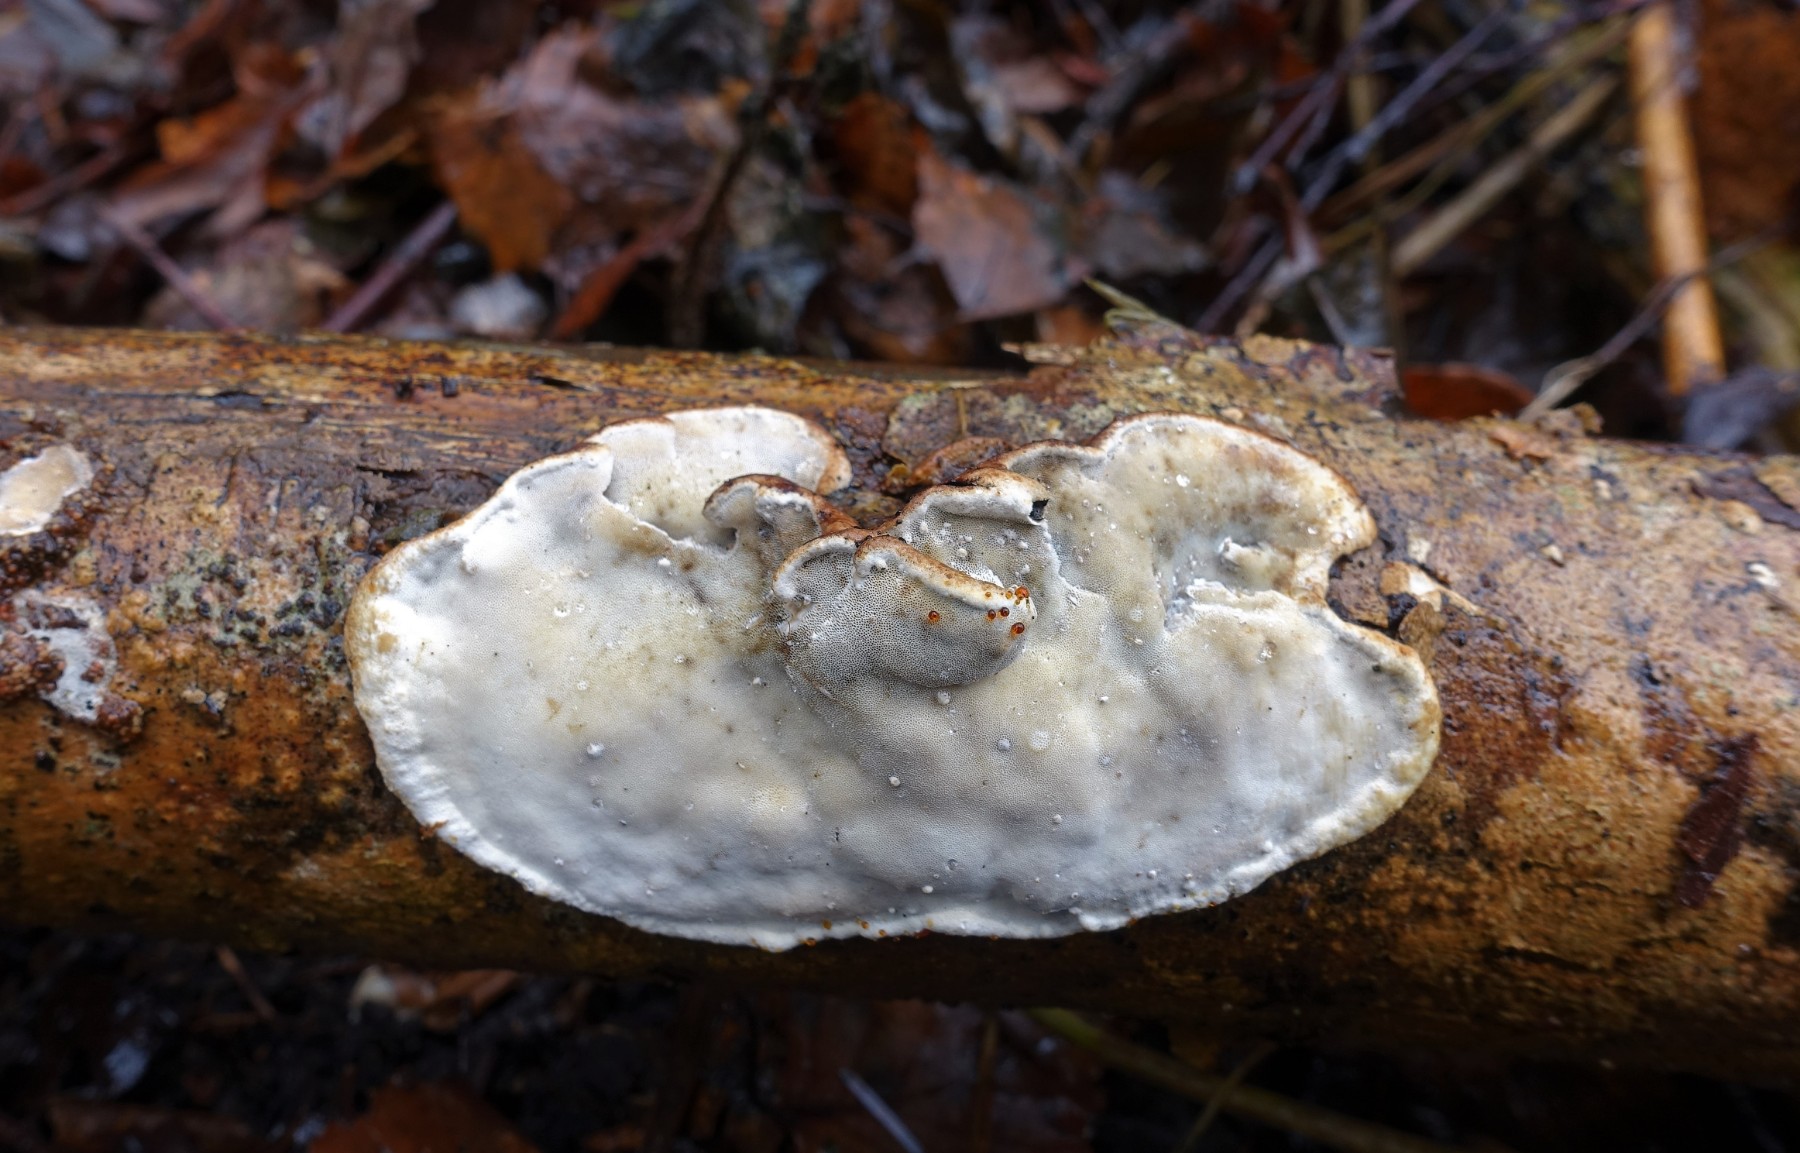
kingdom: Fungi
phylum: Basidiomycota
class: Agaricomycetes
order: Polyporales
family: Incrustoporiaceae
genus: Skeletocutis
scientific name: Skeletocutis nemoralis
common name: stor krystalporesvamp
